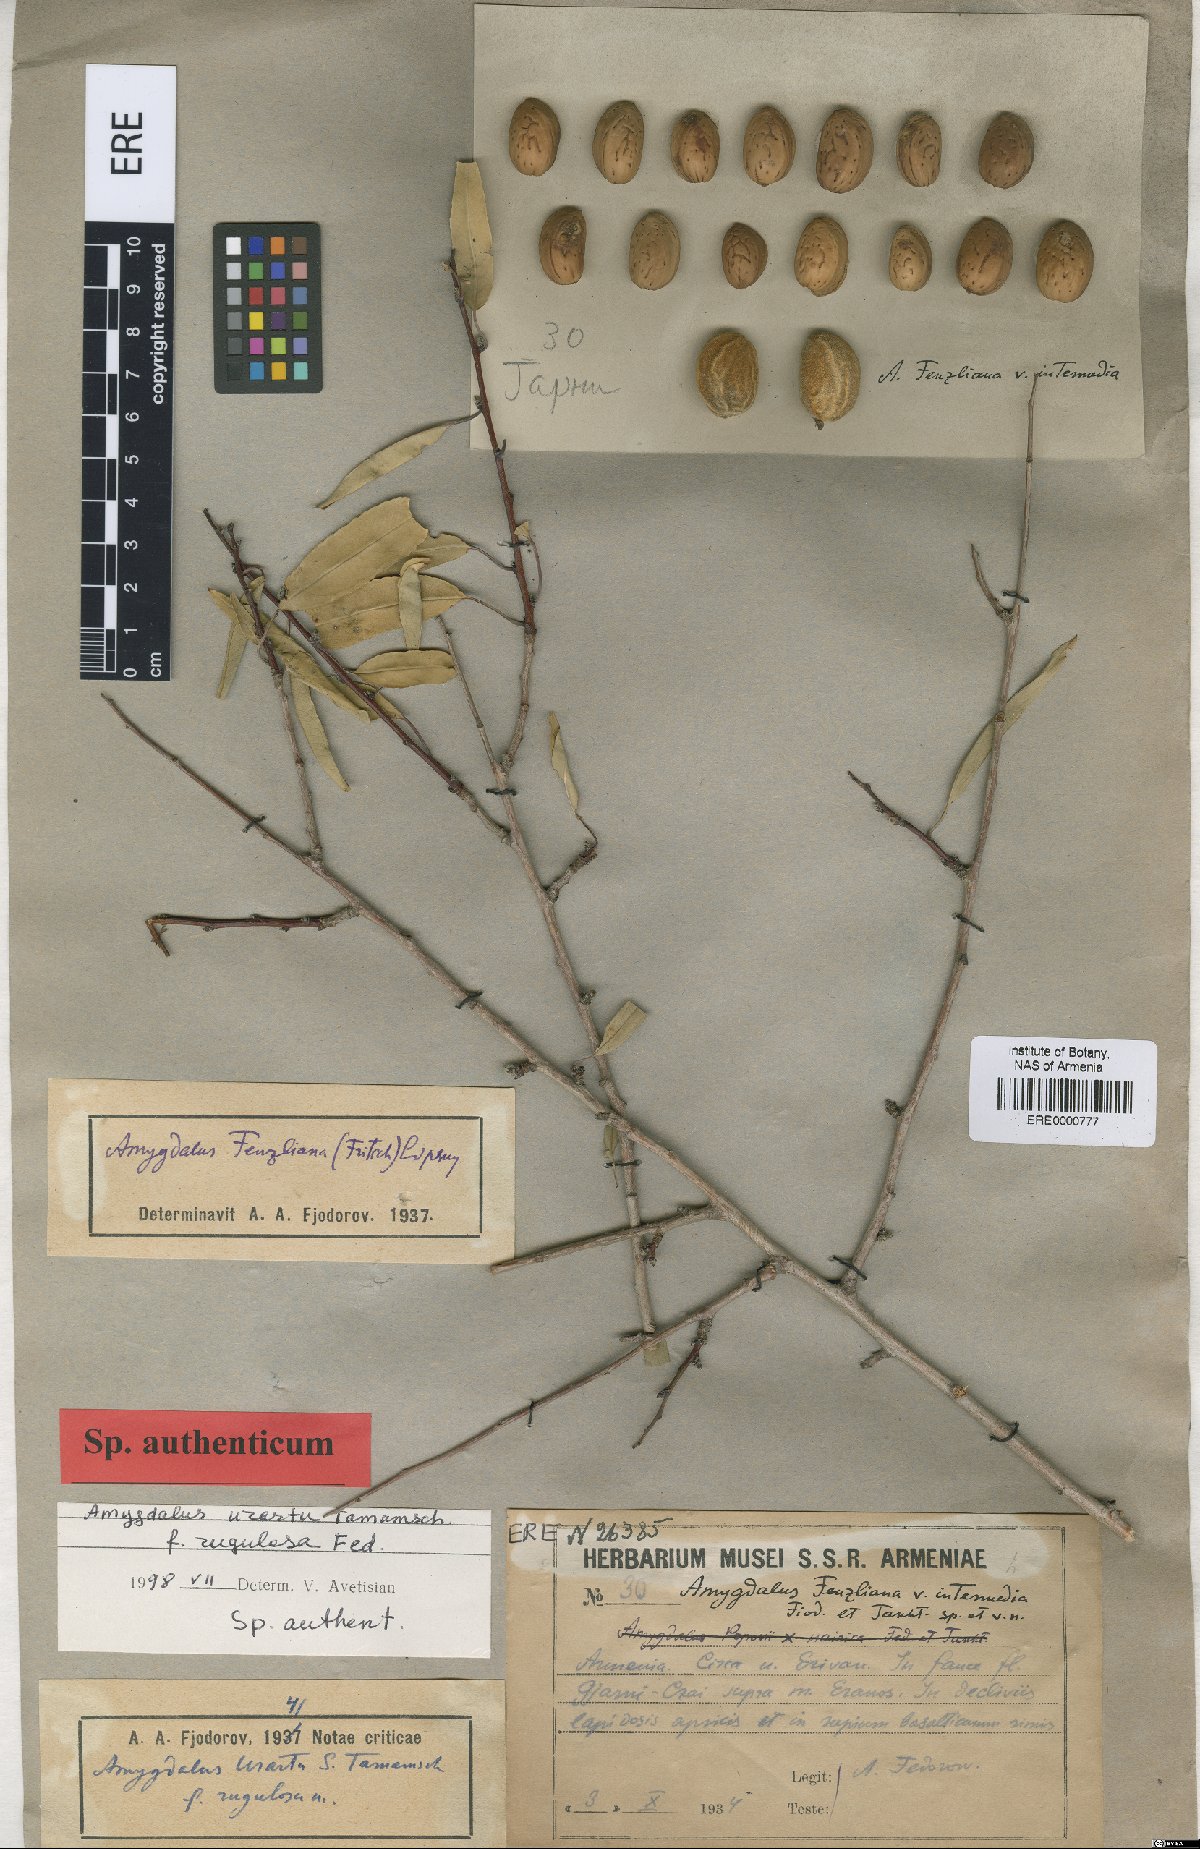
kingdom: Plantae
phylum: Tracheophyta
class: Magnoliopsida
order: Rosales
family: Rosaceae
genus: Prunus
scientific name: Prunus urartu
